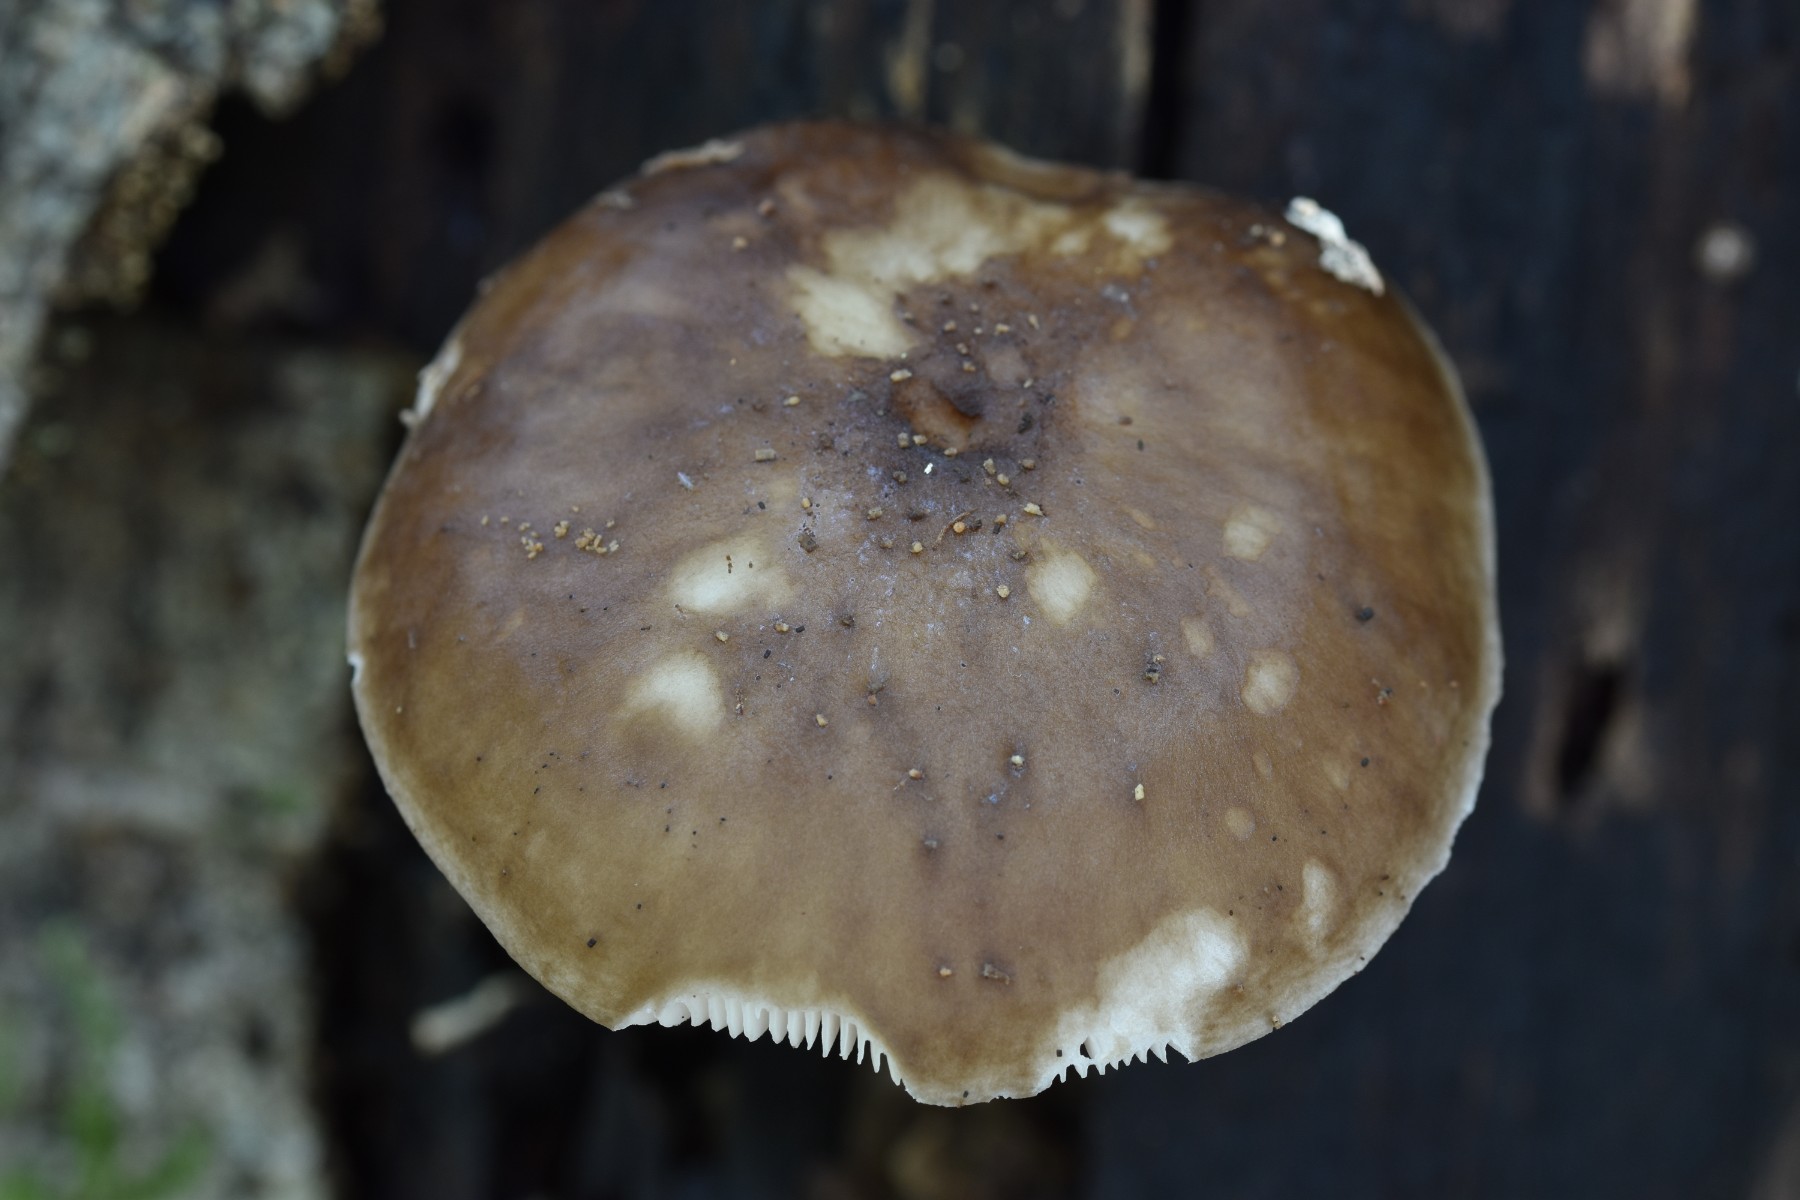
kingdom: Fungi
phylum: Basidiomycota
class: Agaricomycetes
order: Agaricales
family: Pluteaceae
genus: Pluteus
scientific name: Pluteus cervinus
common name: sodfarvet skærmhat
